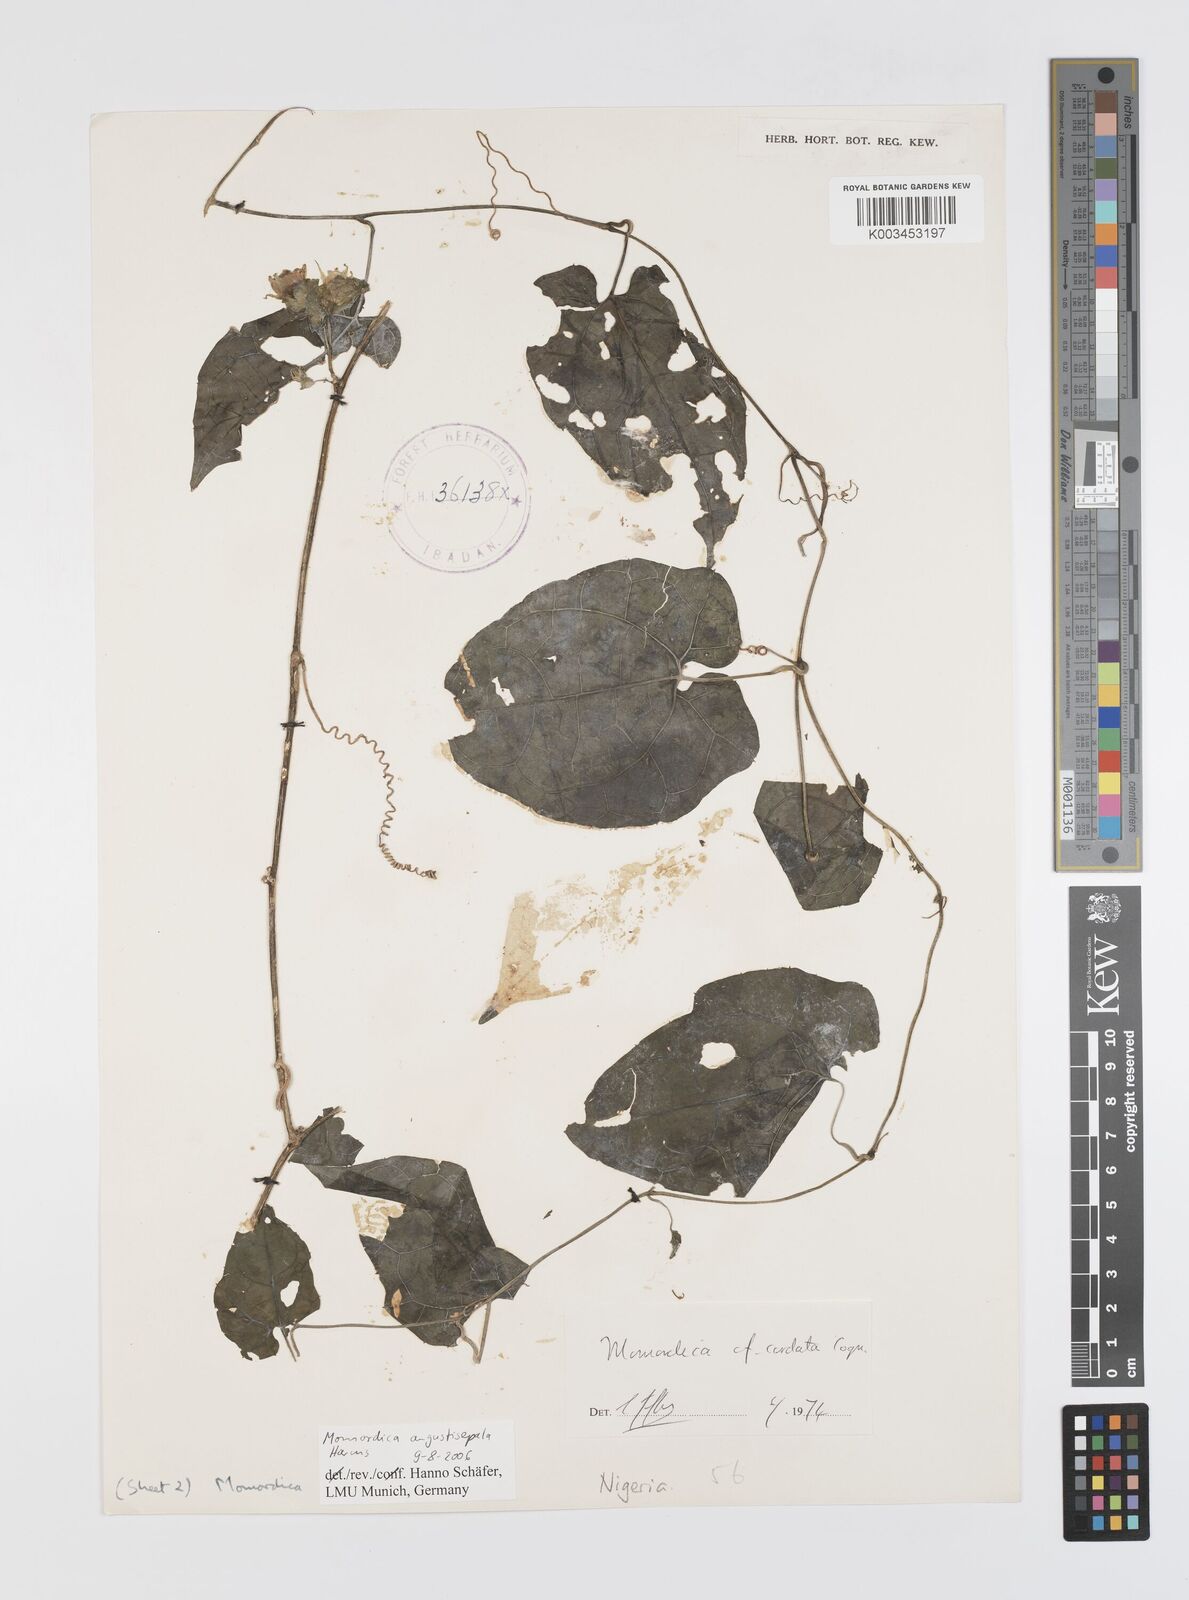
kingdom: Plantae
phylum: Tracheophyta
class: Magnoliopsida
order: Cucurbitales
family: Cucurbitaceae
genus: Momordica
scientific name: Momordica angustisepala
